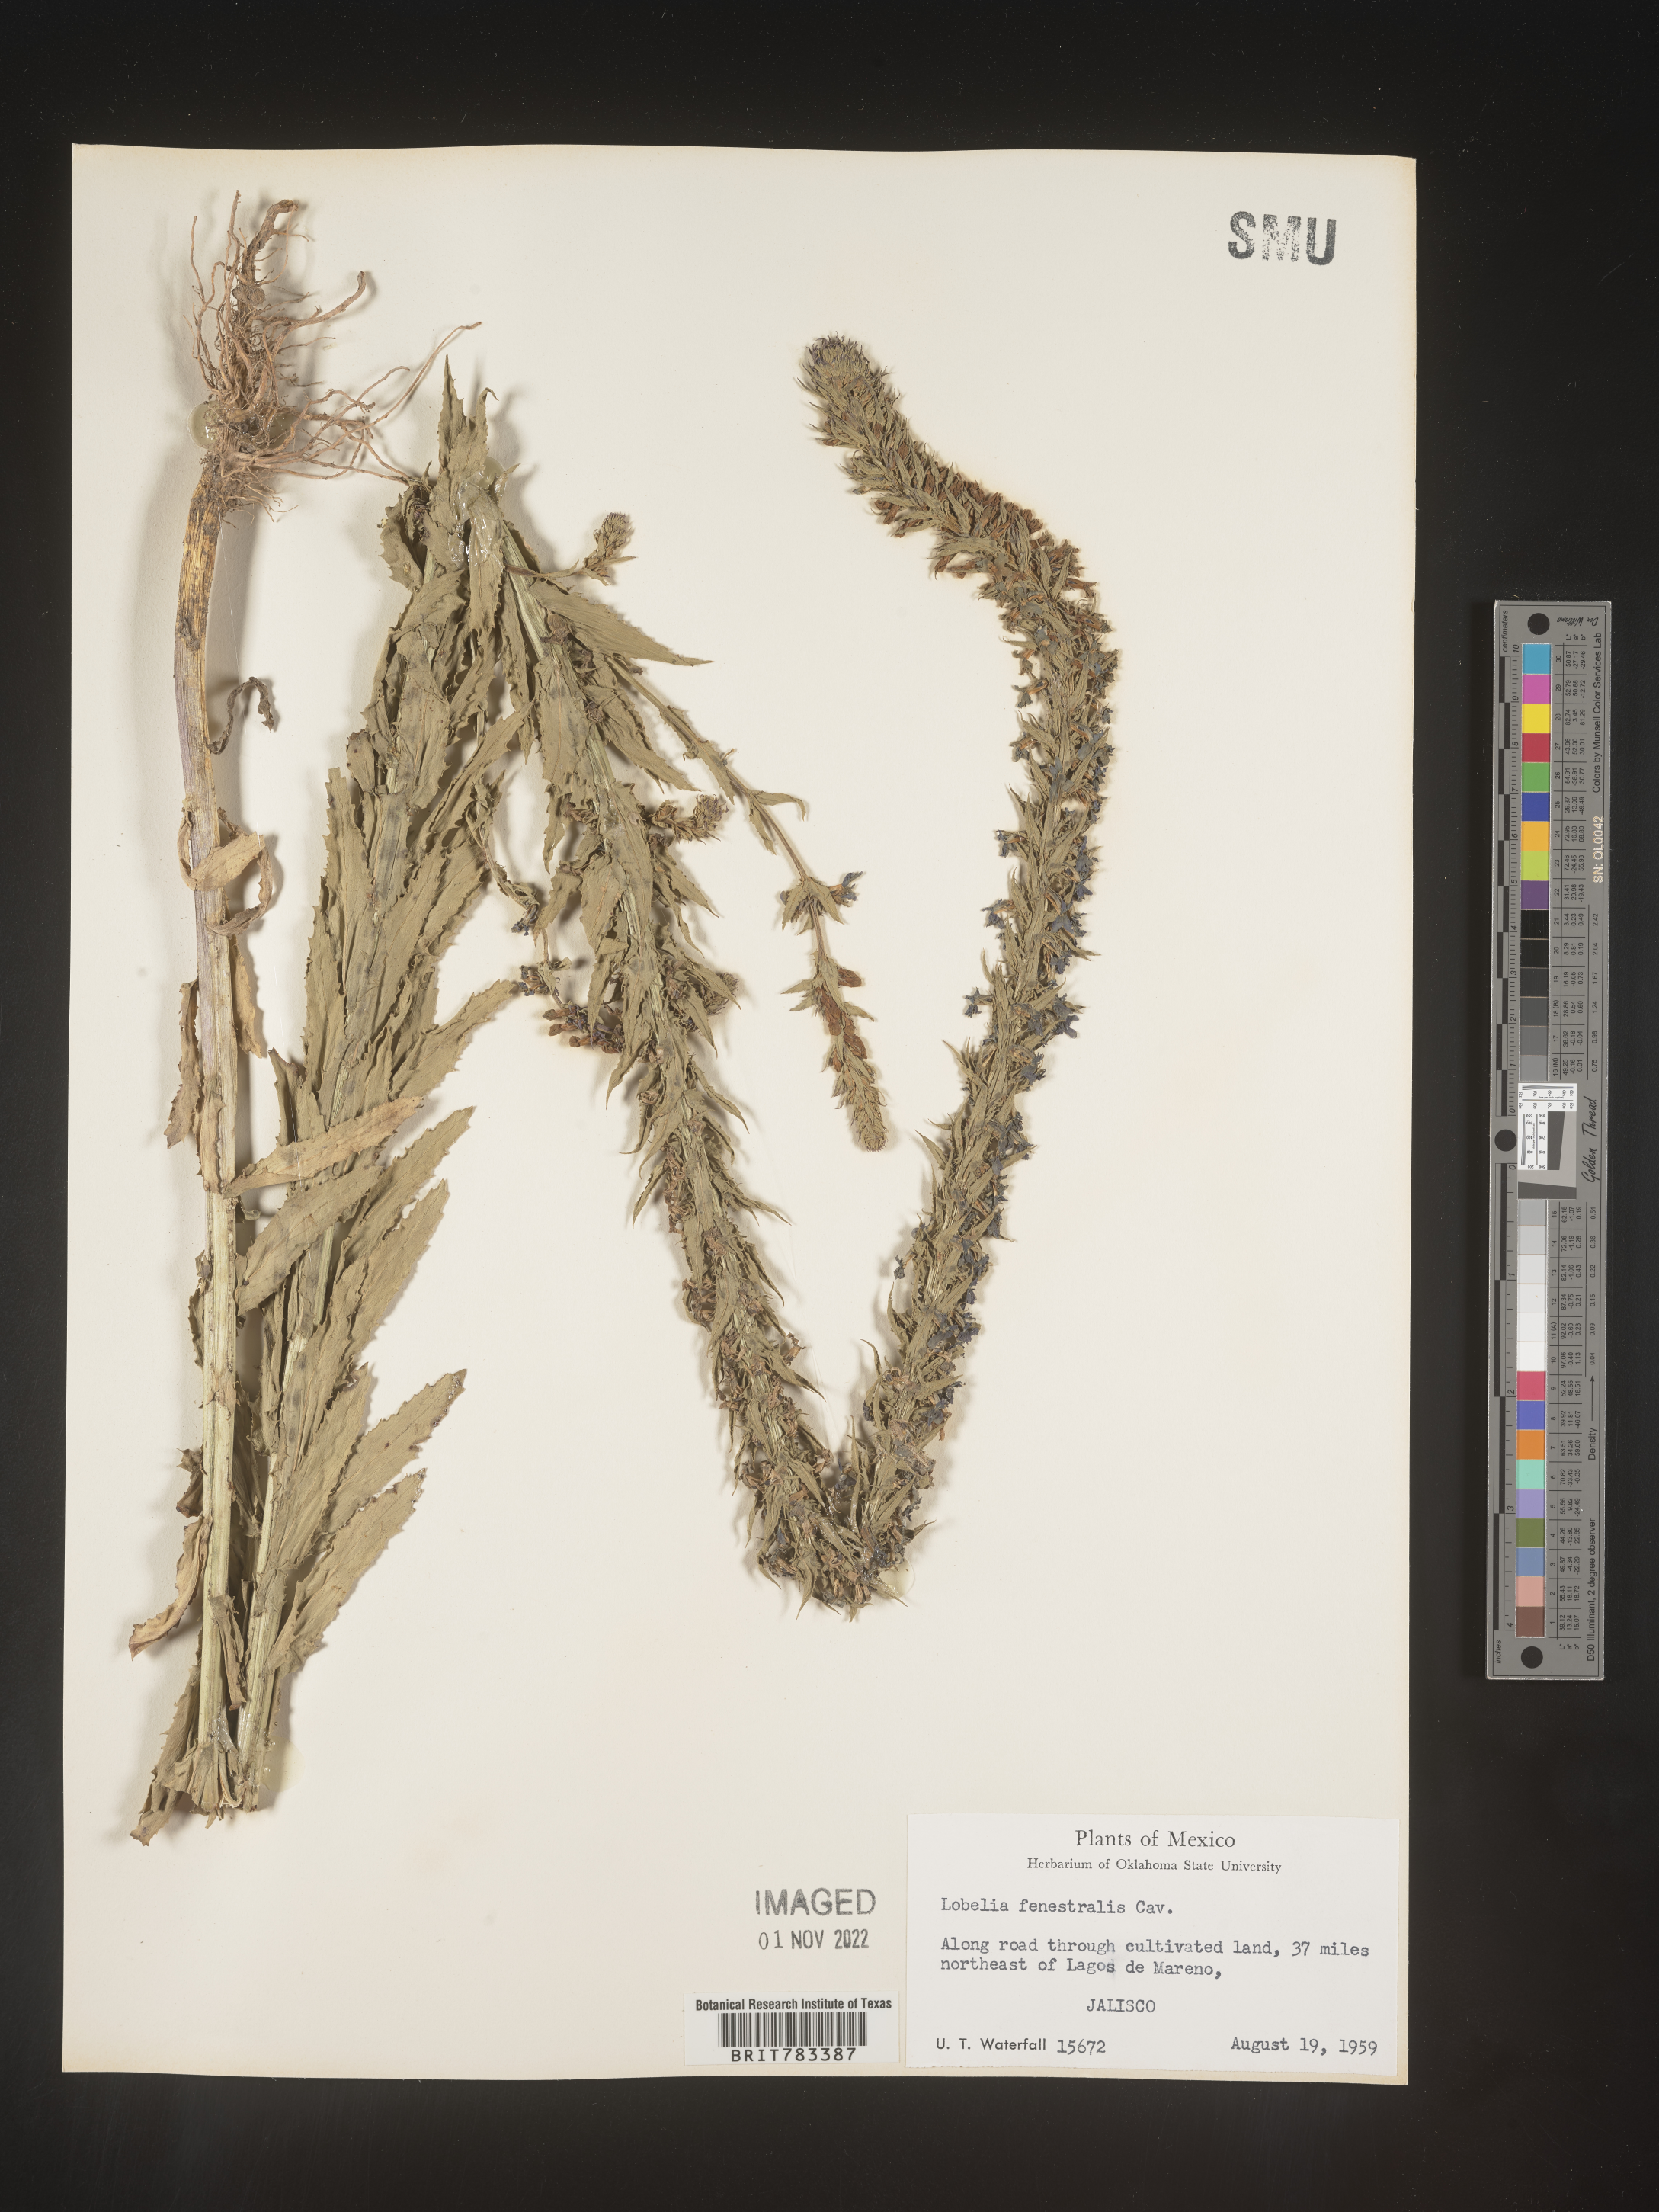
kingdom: Plantae
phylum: Tracheophyta
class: Magnoliopsida
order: Asterales
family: Campanulaceae
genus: Lobelia
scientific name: Lobelia
